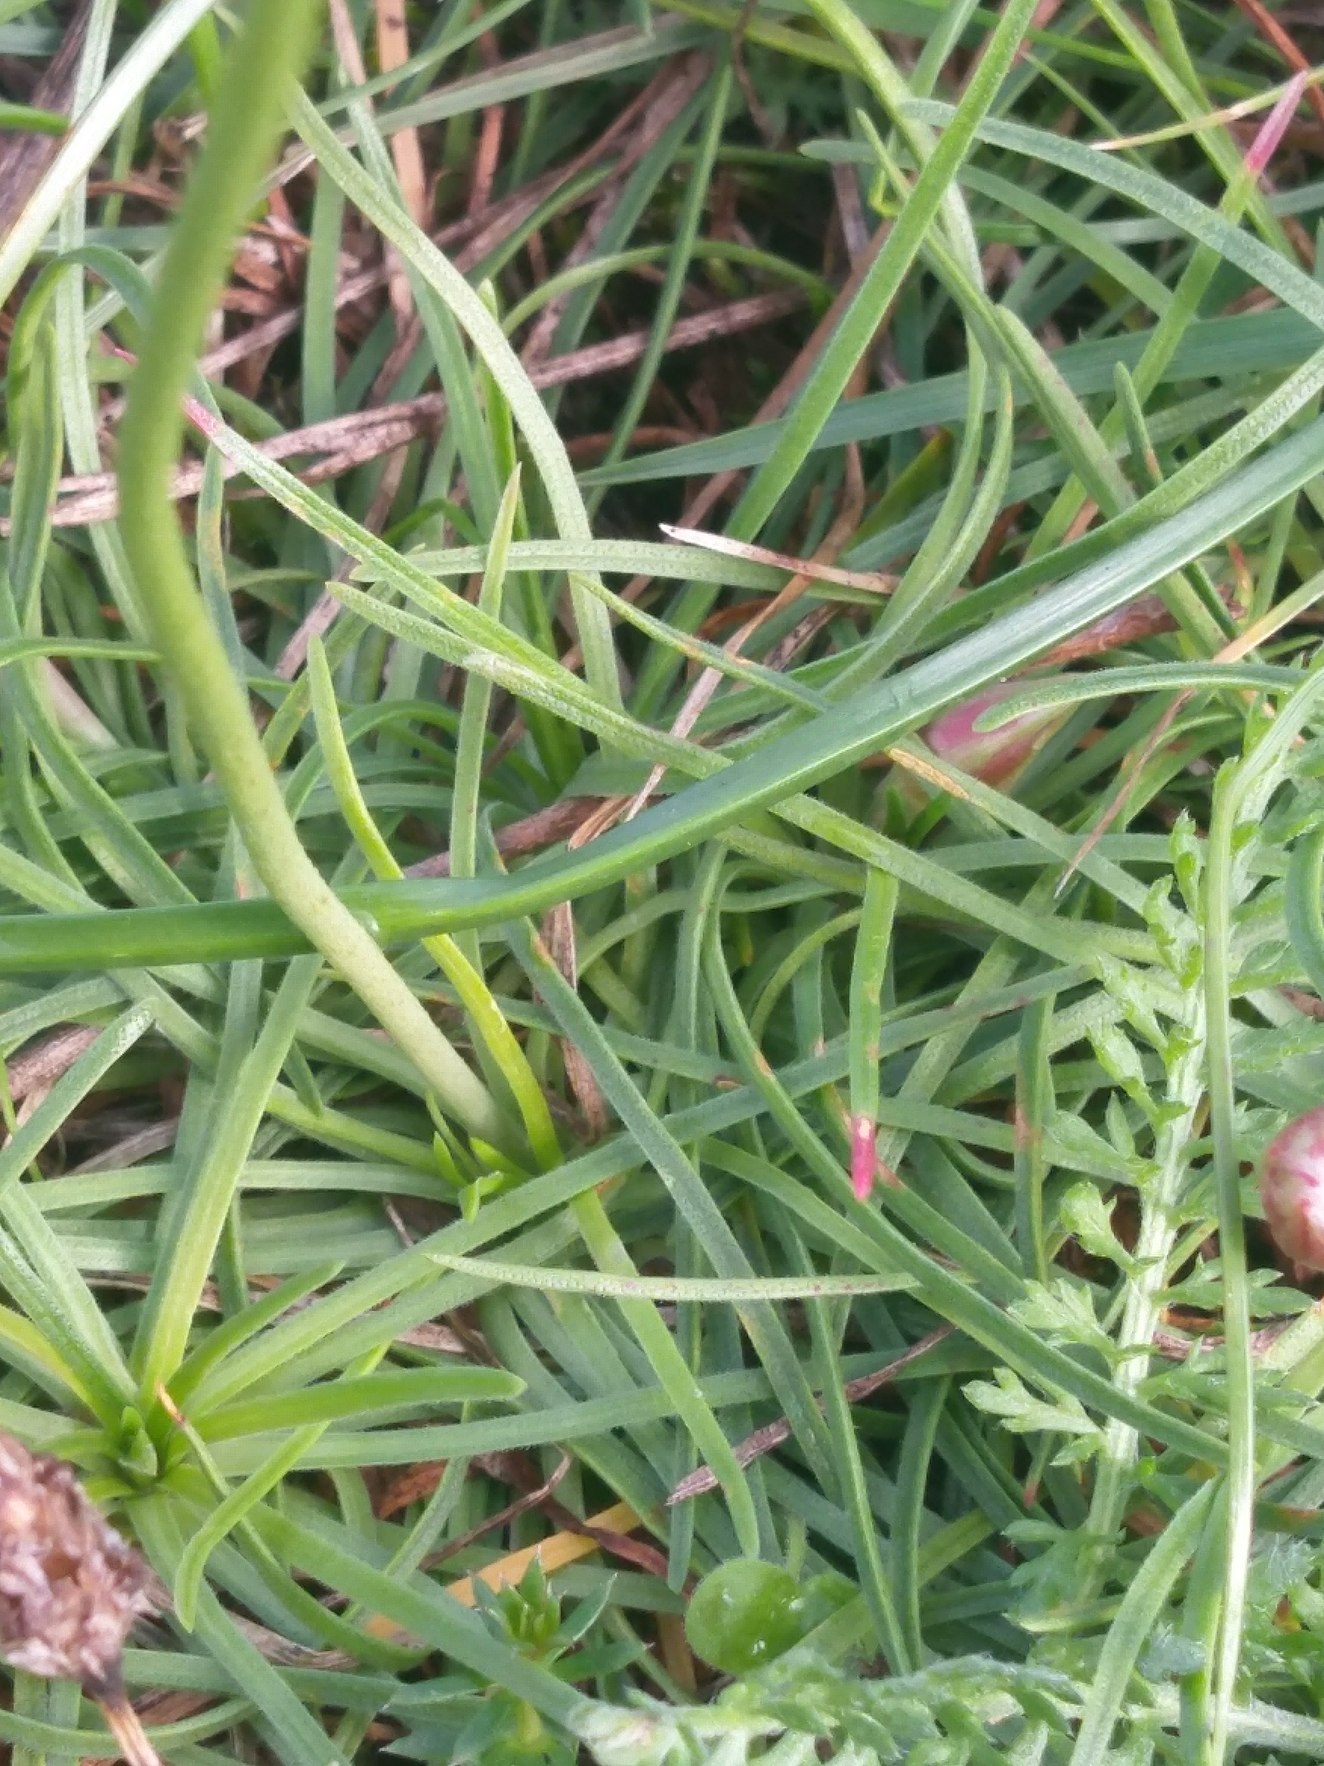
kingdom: Plantae
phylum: Tracheophyta
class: Magnoliopsida
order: Caryophyllales
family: Plumbaginaceae
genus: Armeria
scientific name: Armeria maritima
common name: Engelskgræs
